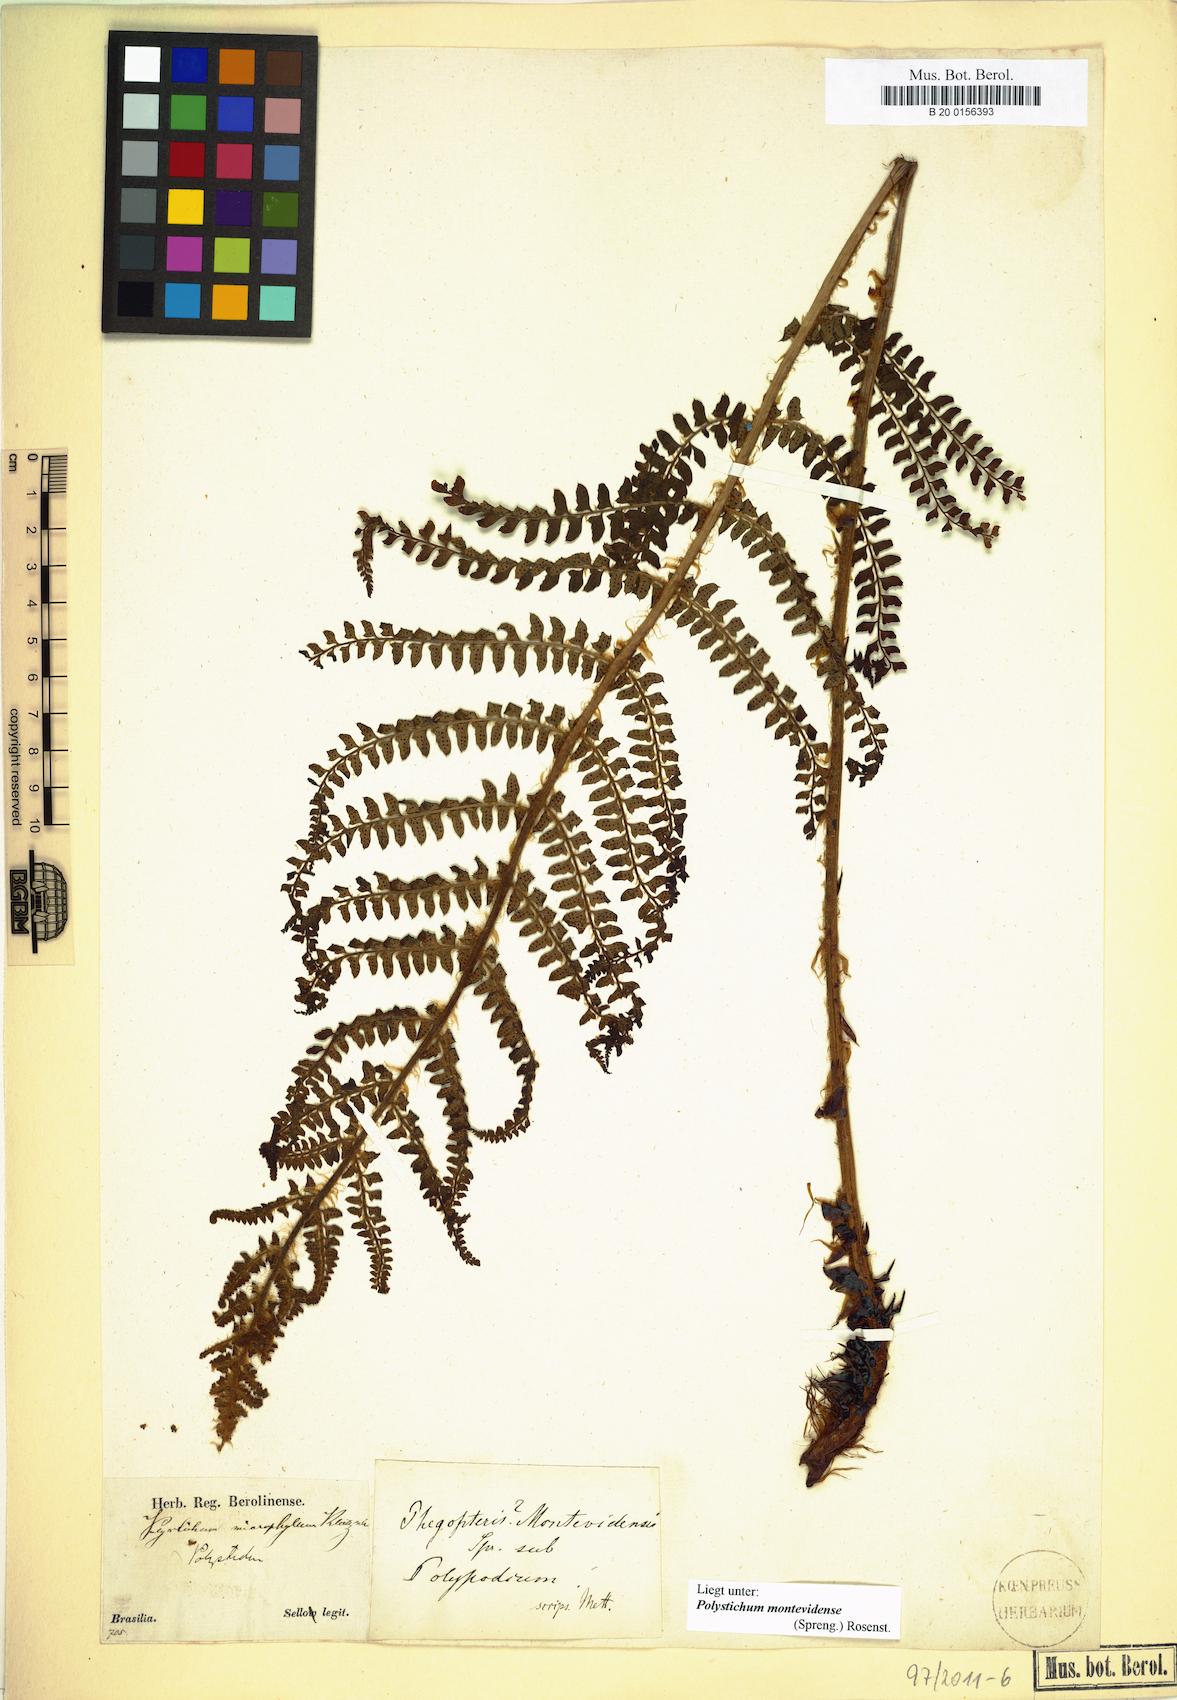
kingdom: Plantae
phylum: Tracheophyta
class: Polypodiopsida
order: Polypodiales
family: Dryopteridaceae
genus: Polystichum
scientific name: Polystichum montevidense
